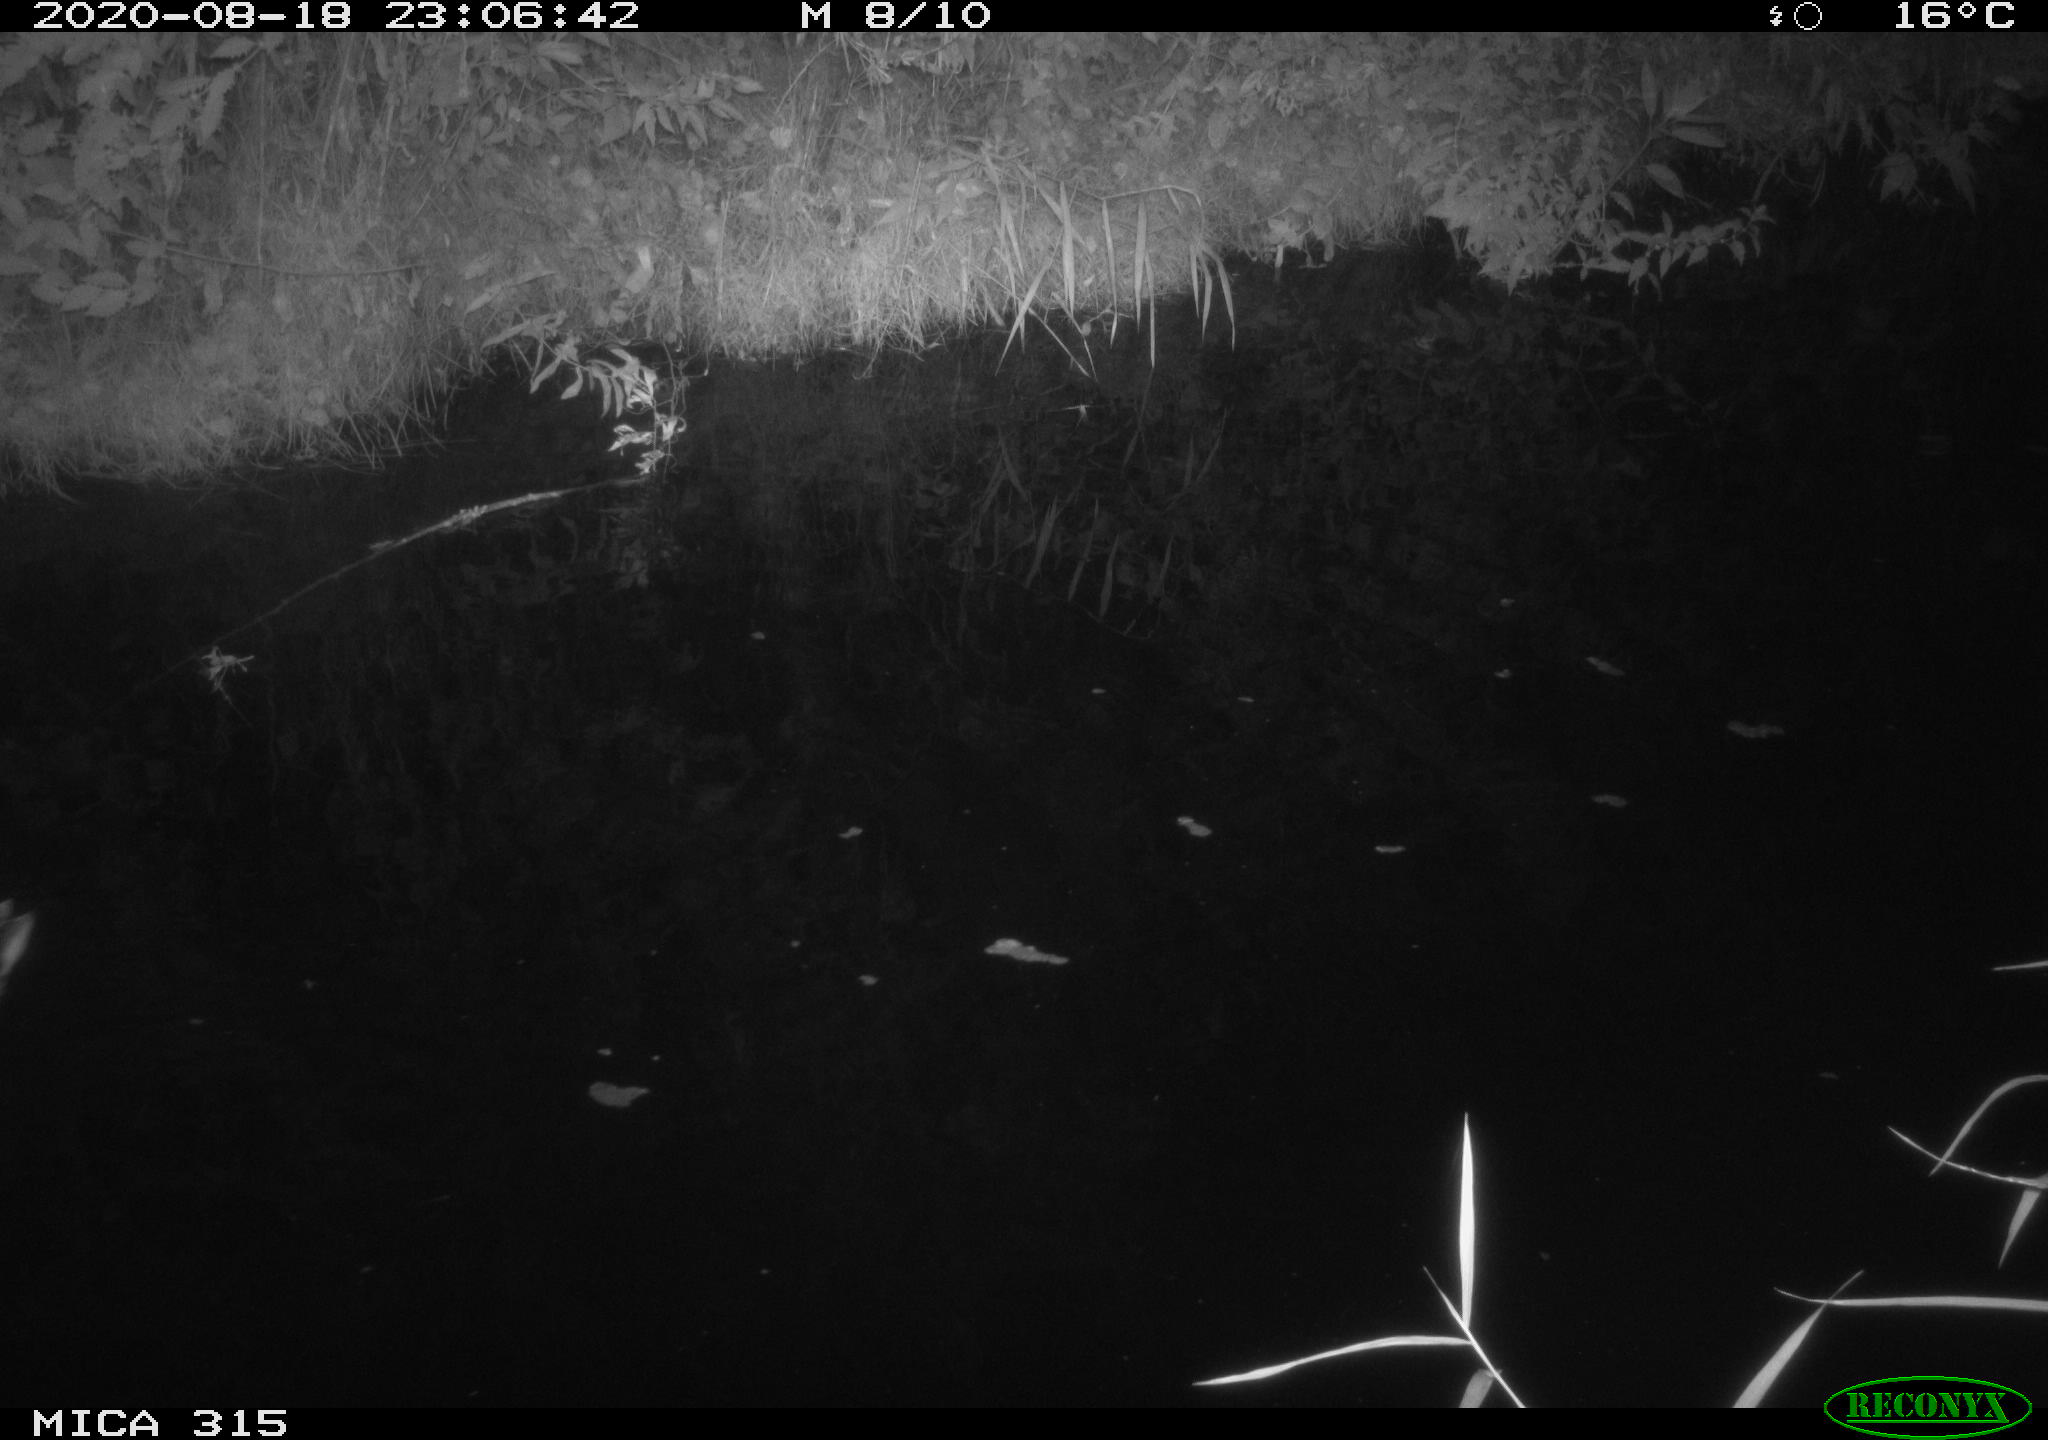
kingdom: Animalia
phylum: Chordata
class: Aves
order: Anseriformes
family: Anatidae
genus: Anas
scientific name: Anas platyrhynchos
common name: Mallard
